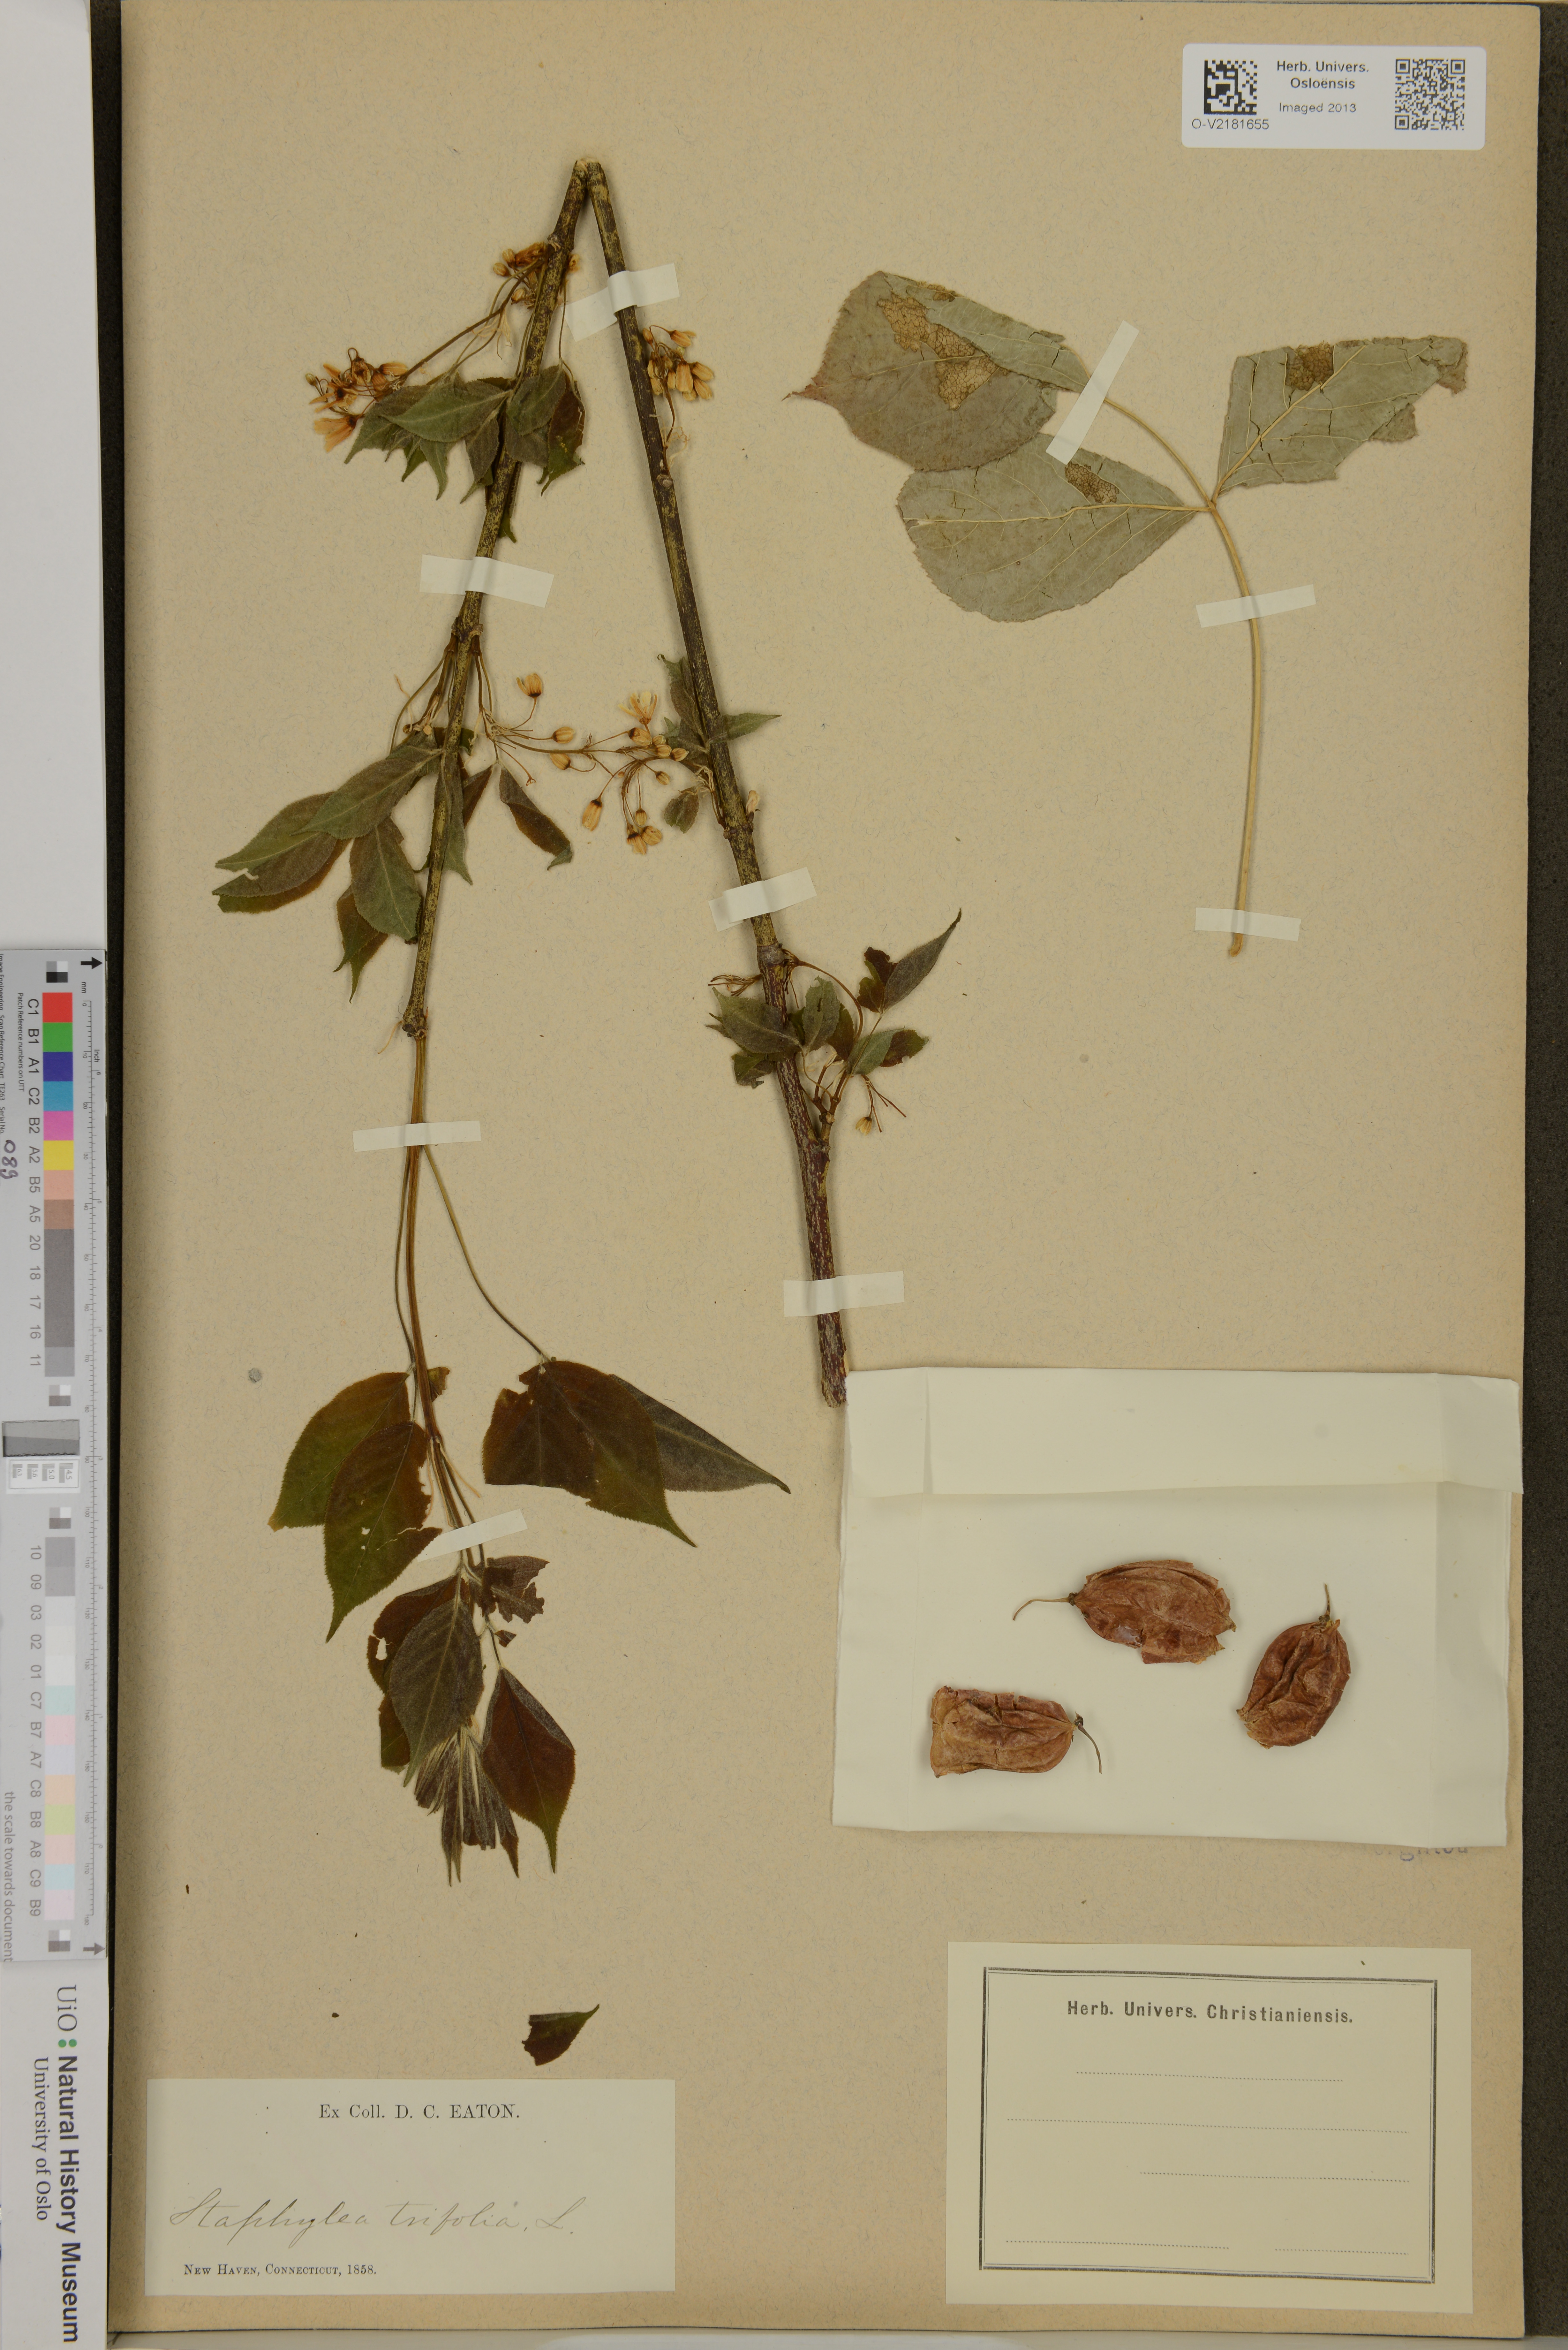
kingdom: Plantae
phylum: Tracheophyta
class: Magnoliopsida
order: Crossosomatales
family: Staphyleaceae
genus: Staphylea
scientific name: Staphylea trifolia
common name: American bladdernut
